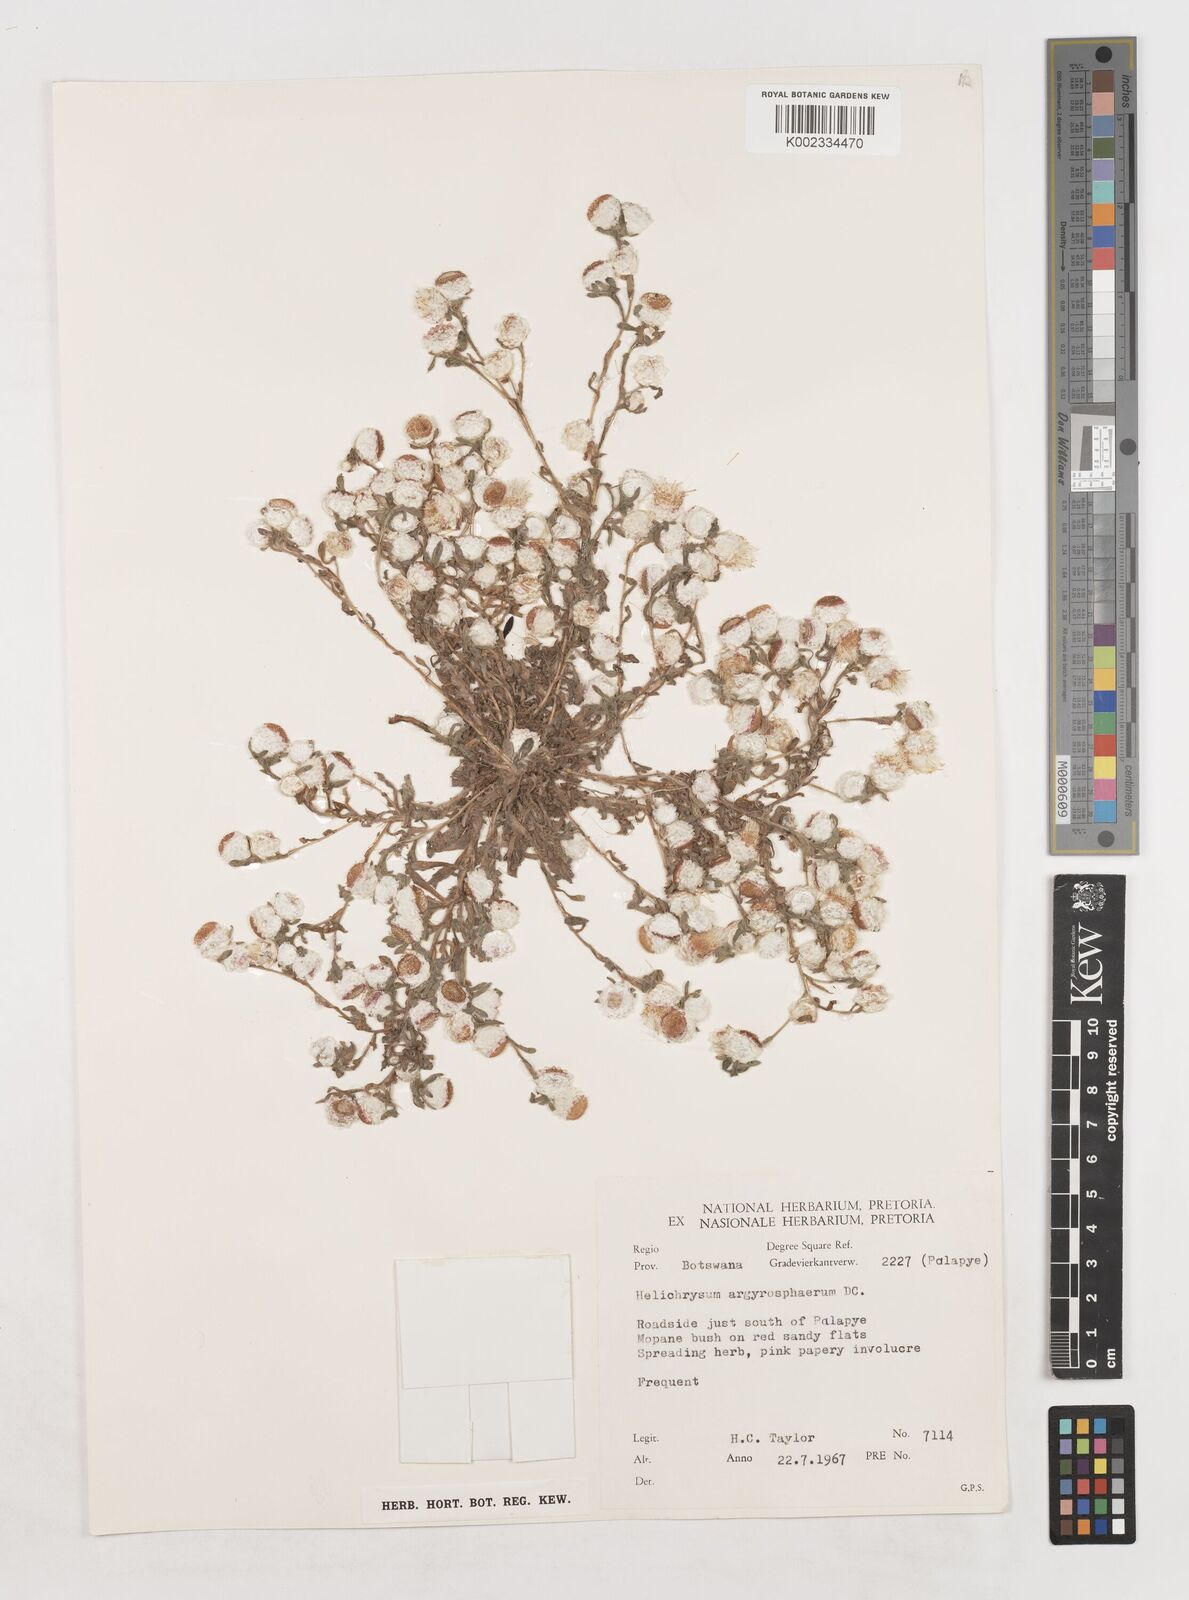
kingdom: Plantae
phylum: Tracheophyta
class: Magnoliopsida
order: Asterales
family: Asteraceae
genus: Helichrysum
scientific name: Helichrysum argyrosphaerum
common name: Wild everlasting
